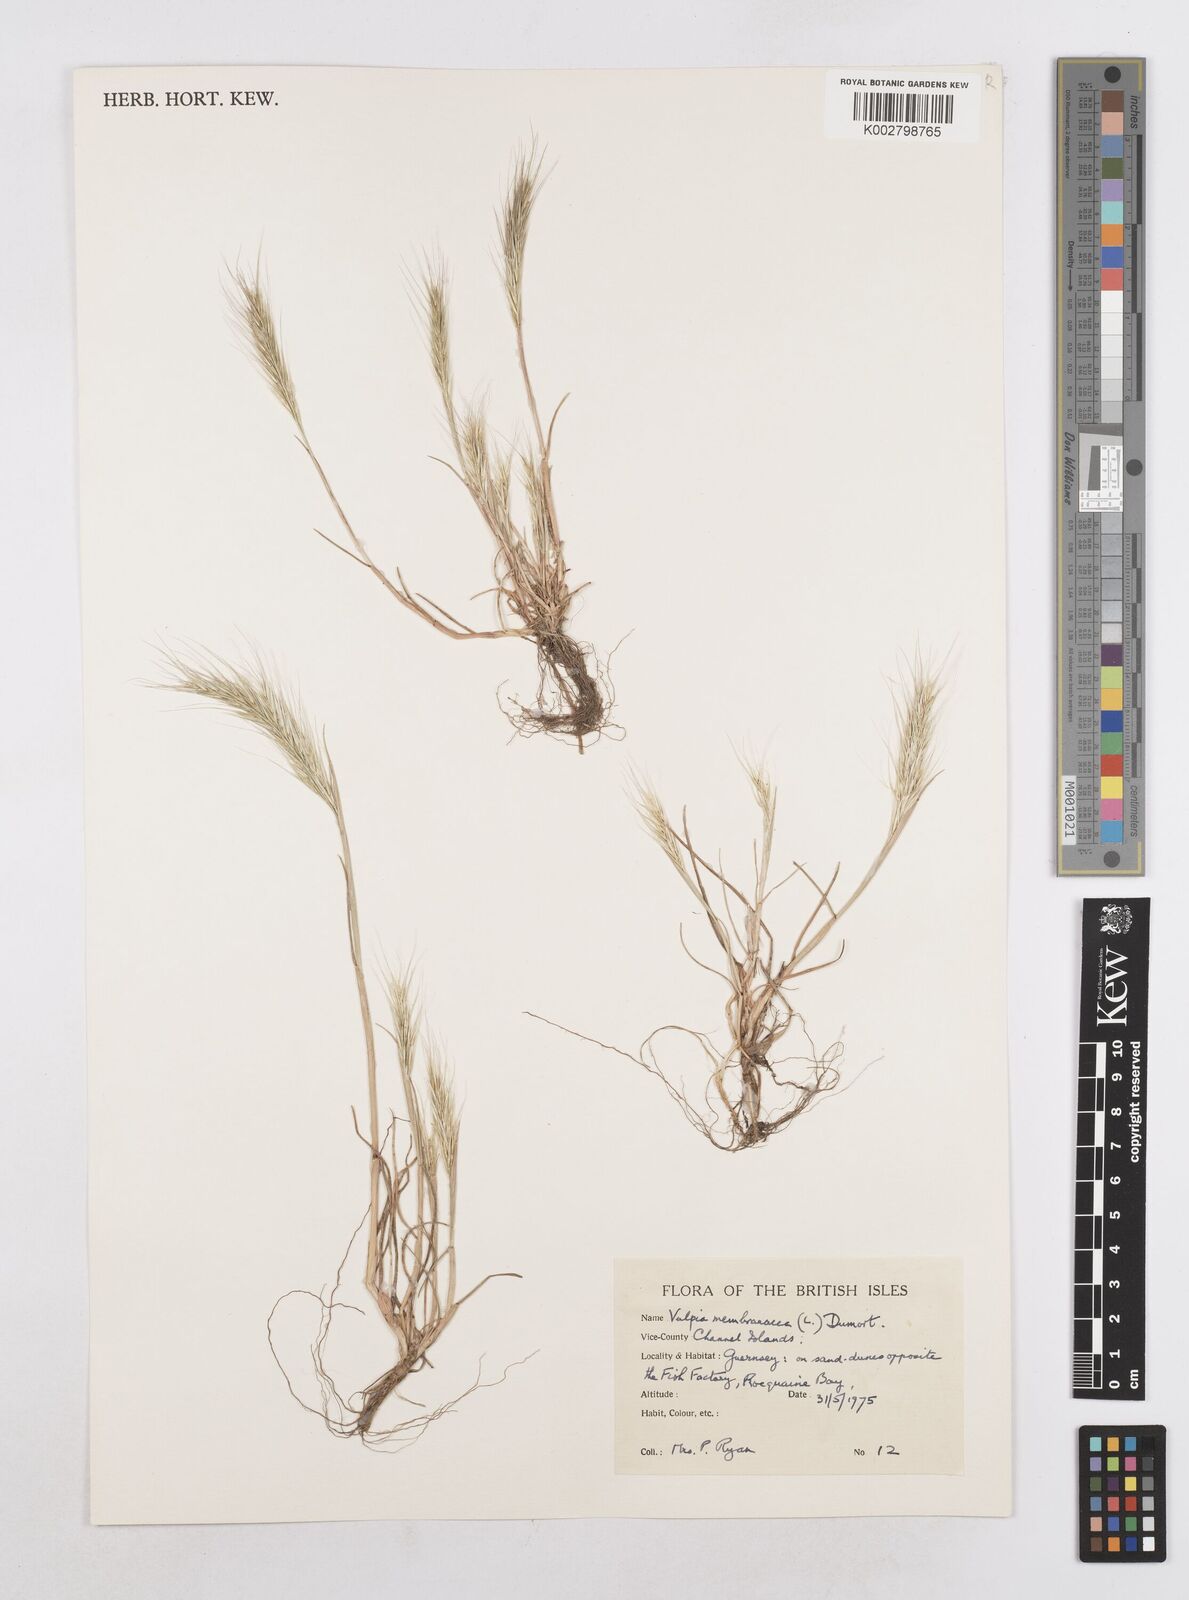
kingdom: Plantae
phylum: Tracheophyta
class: Liliopsida
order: Poales
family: Poaceae
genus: Festuca
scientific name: Festuca fasciculata
